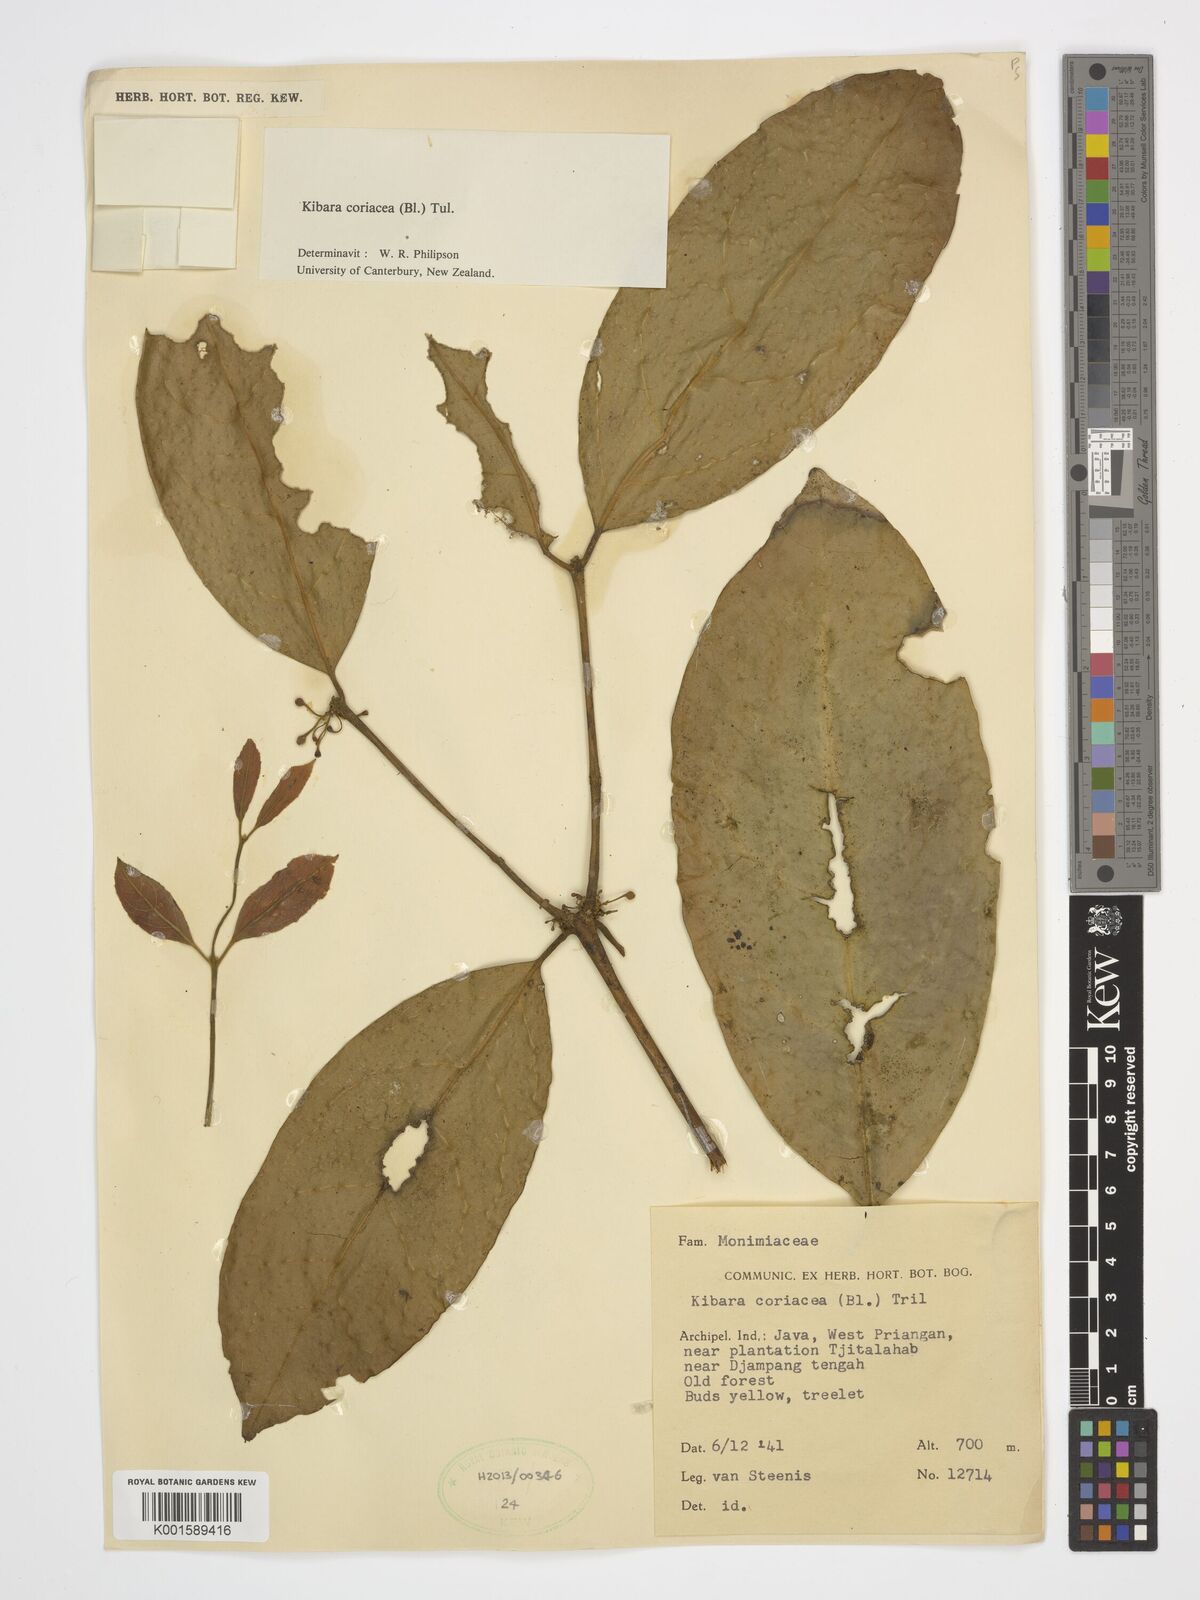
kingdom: Plantae
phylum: Tracheophyta
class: Magnoliopsida
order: Laurales
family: Monimiaceae
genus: Kibara
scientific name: Kibara coriacea
